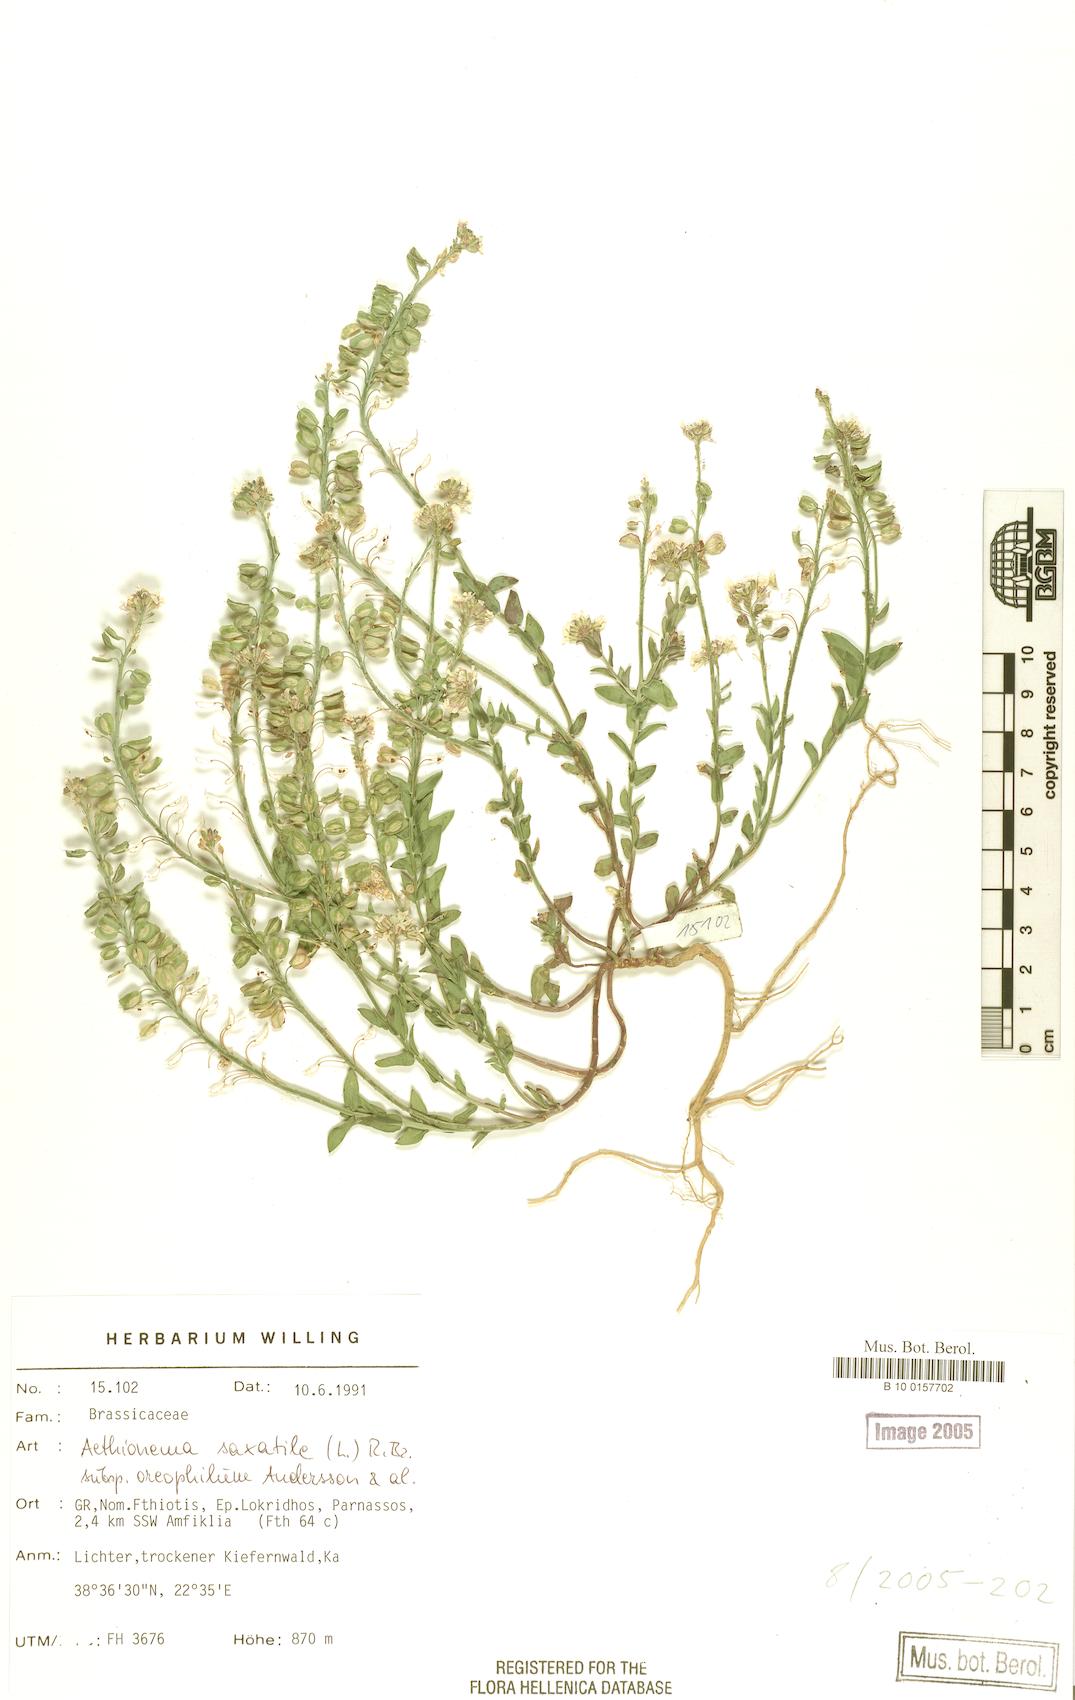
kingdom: Plantae
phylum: Tracheophyta
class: Magnoliopsida
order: Brassicales
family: Brassicaceae
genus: Aethionema
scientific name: Aethionema saxatile
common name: Burnt candytuft
